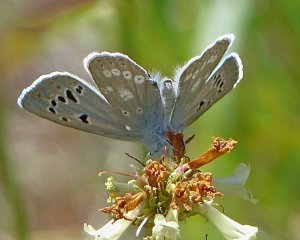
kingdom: Animalia
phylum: Arthropoda
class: Insecta
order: Lepidoptera
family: Lycaenidae
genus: Icaricia
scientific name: Icaricia icarioides
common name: Boisduval's Blue
